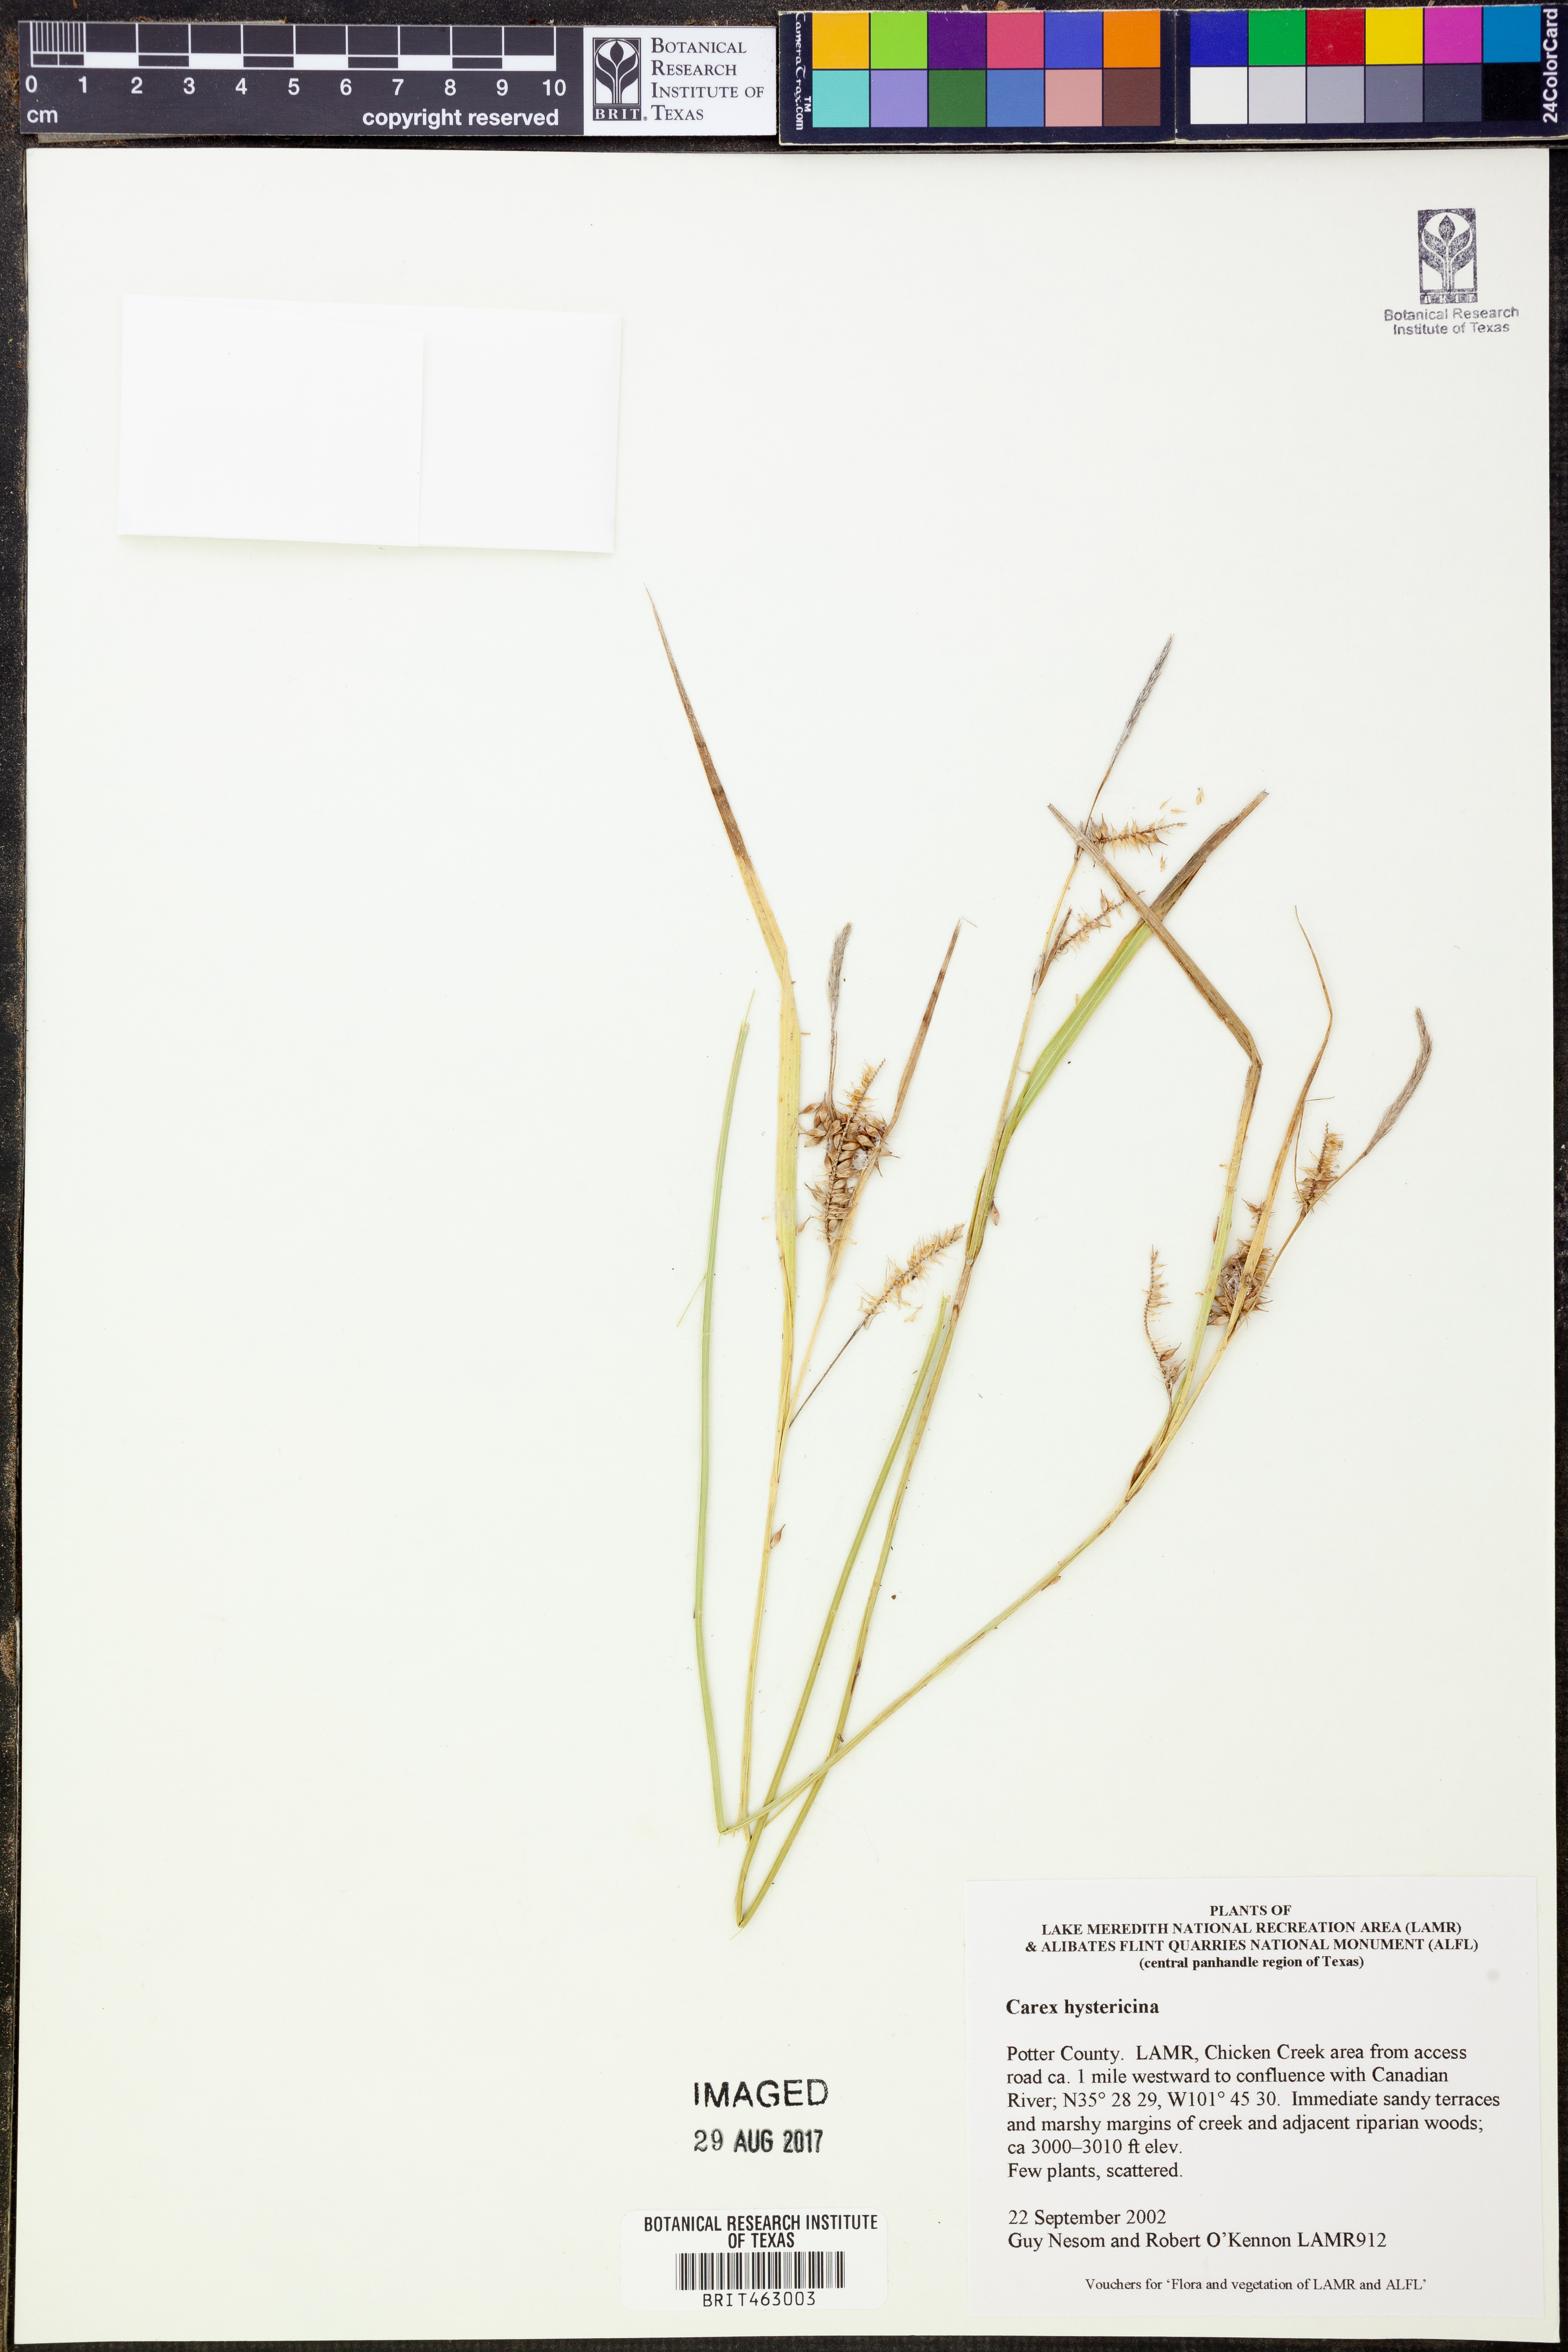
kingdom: Plantae
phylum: Tracheophyta
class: Liliopsida
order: Poales
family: Cyperaceae
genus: Carex
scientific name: Carex hystericina
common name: Bottlebrush sedge
